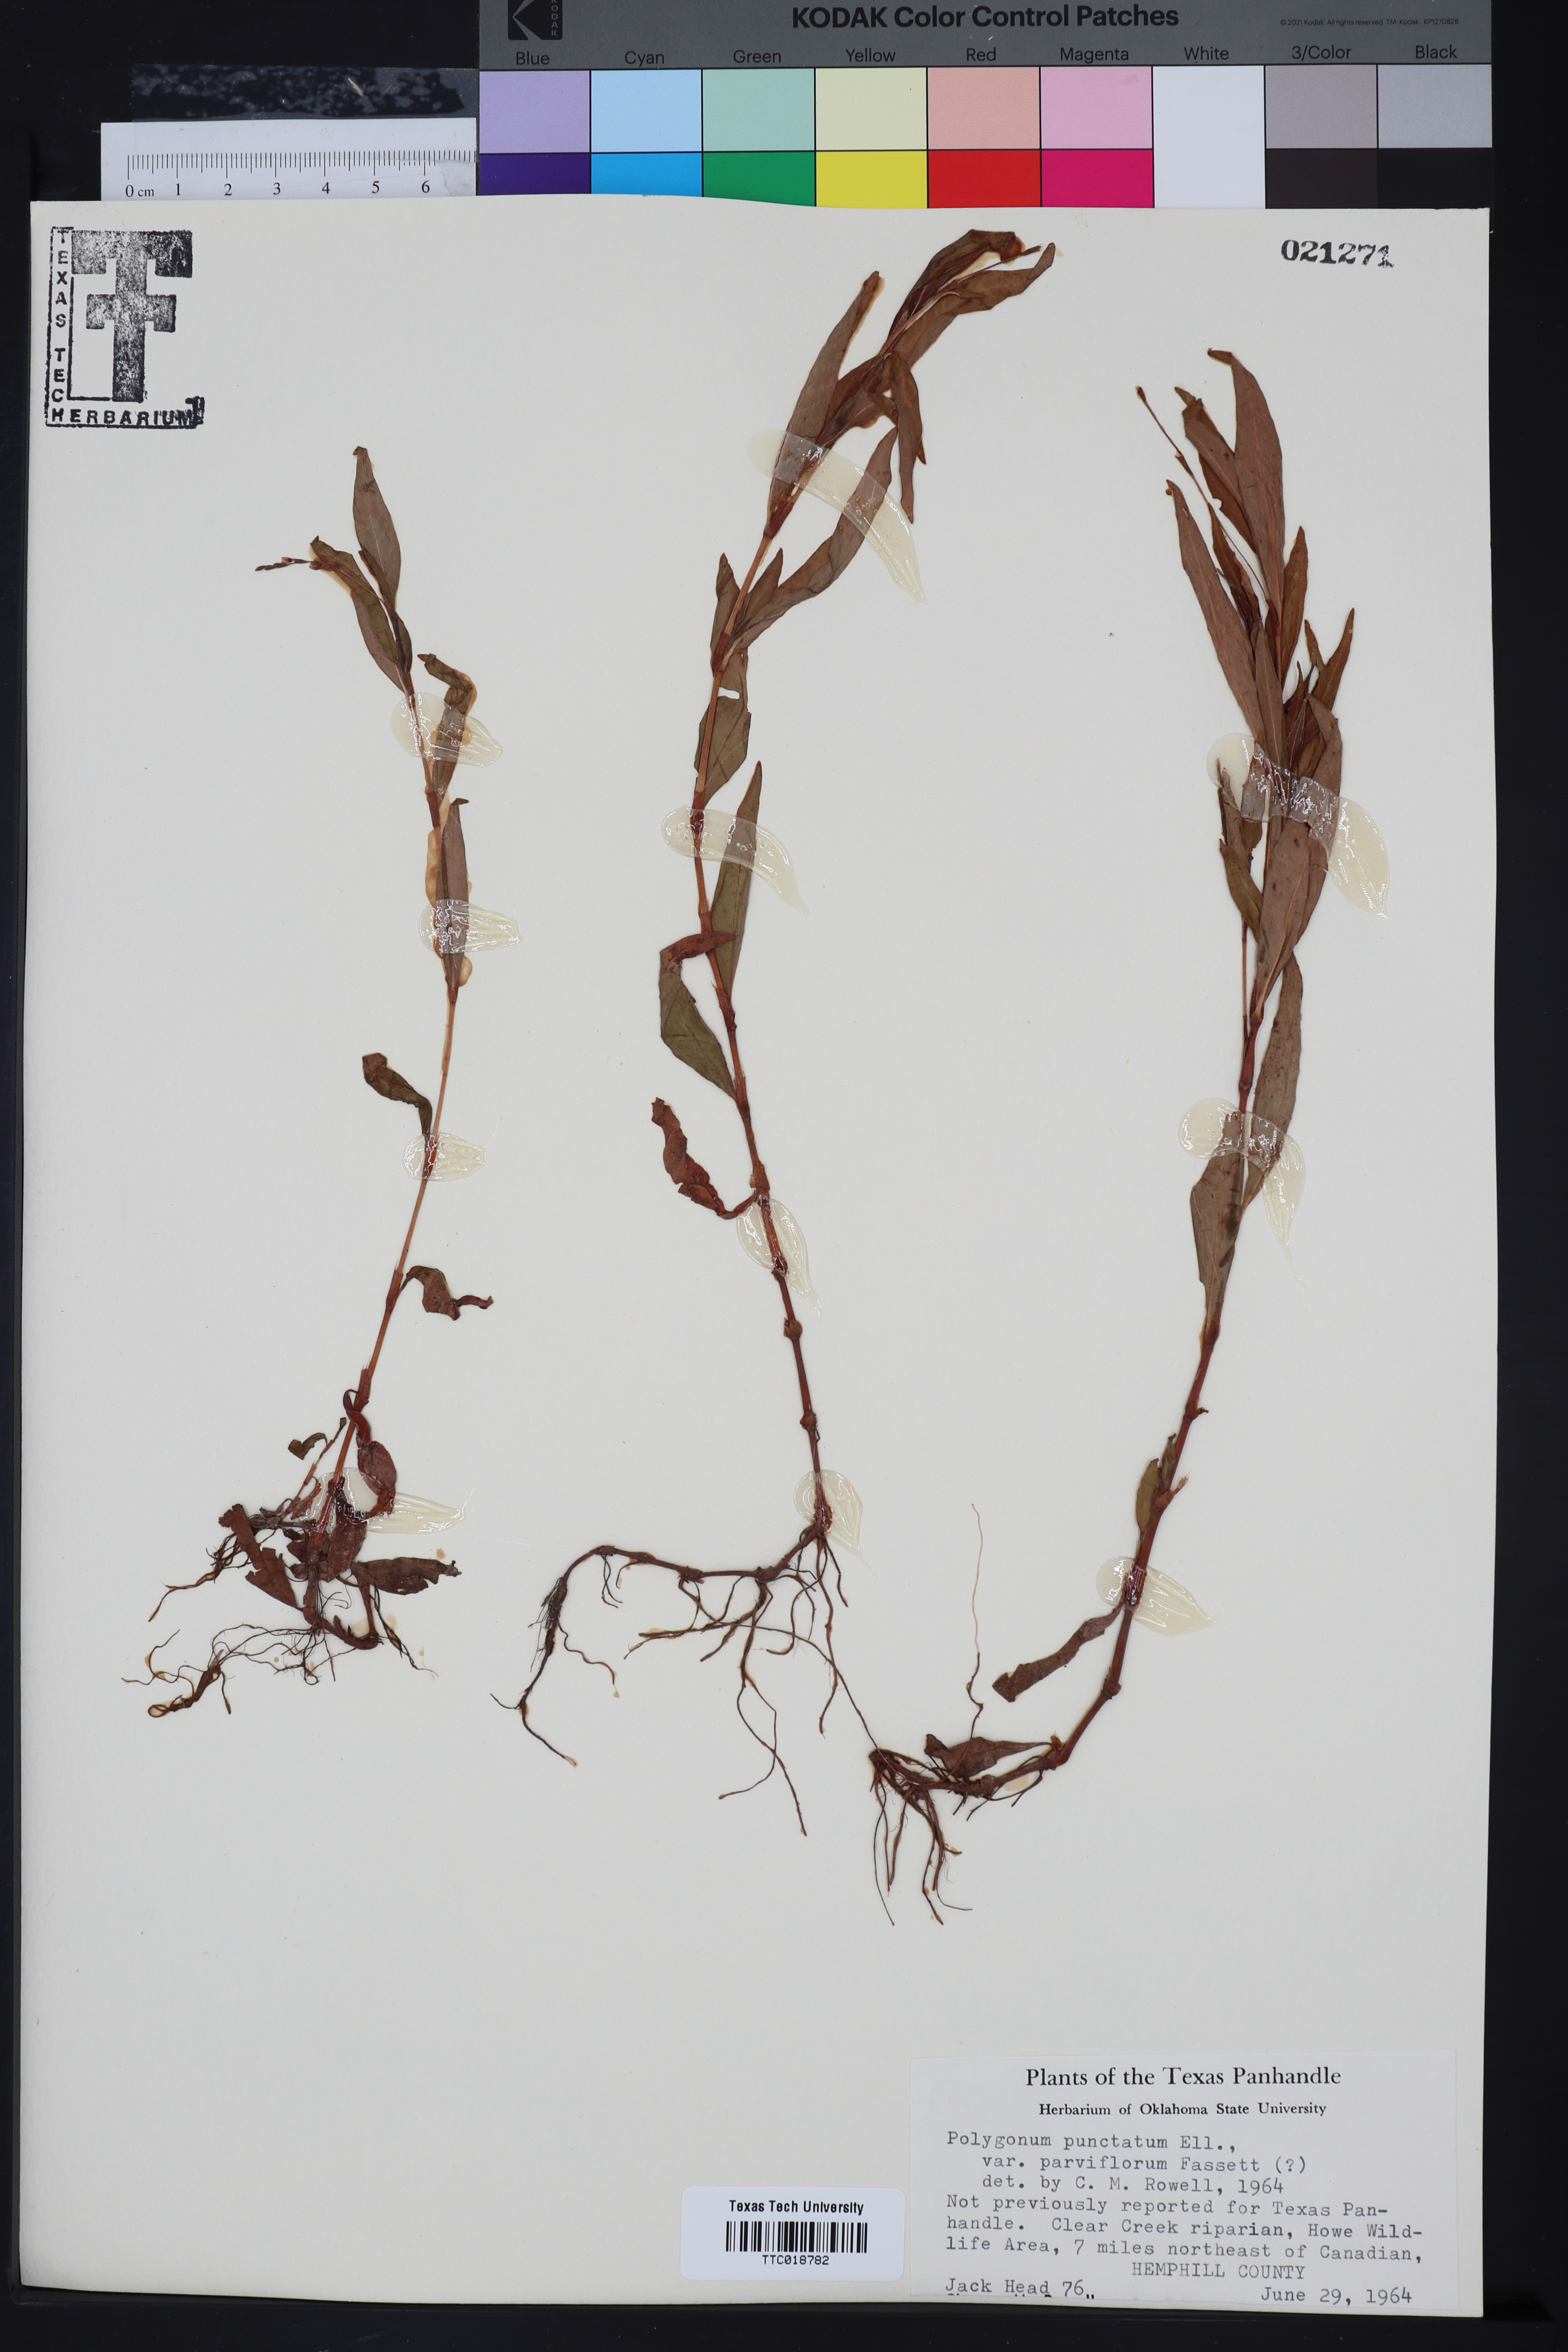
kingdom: Plantae
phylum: Tracheophyta
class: Magnoliopsida
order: Caryophyllales
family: Polygonaceae
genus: Persicaria
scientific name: Persicaria punctata
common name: Dotted smartweed
